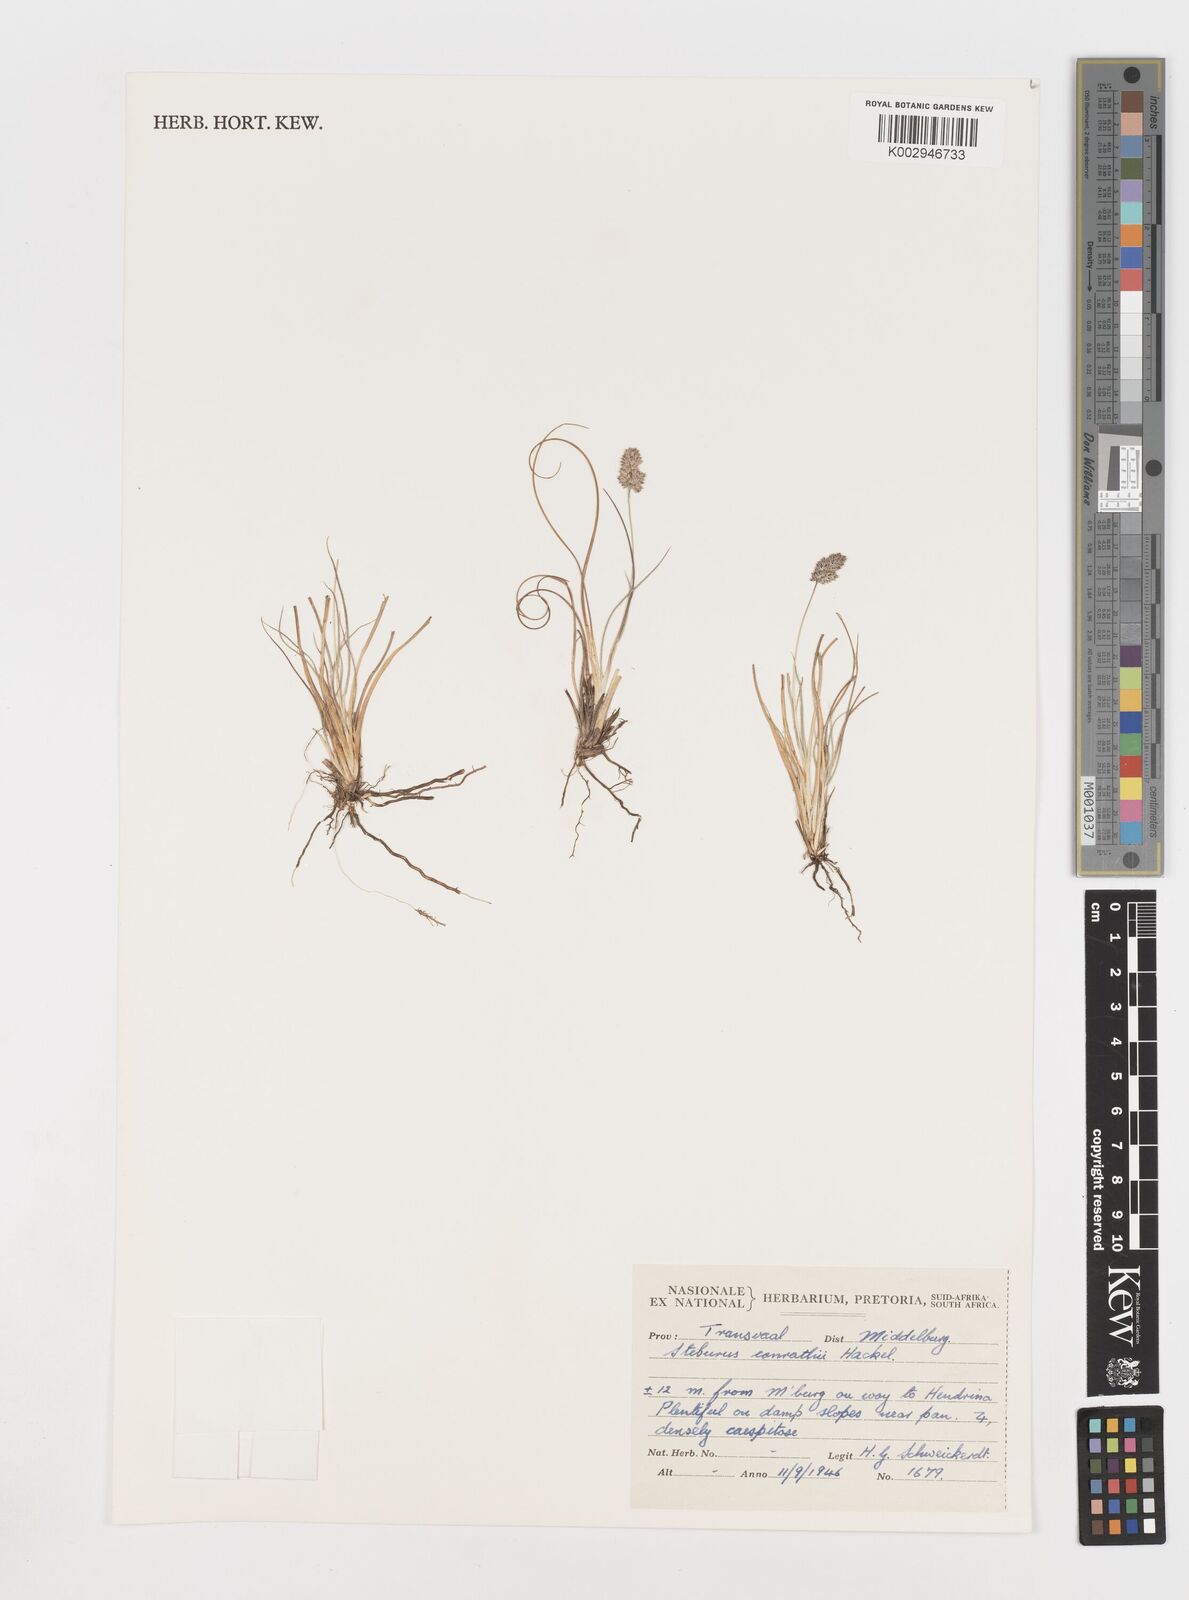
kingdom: Plantae
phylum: Tracheophyta
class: Liliopsida
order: Poales
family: Poaceae
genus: Stiburus
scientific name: Stiburus conrathii
